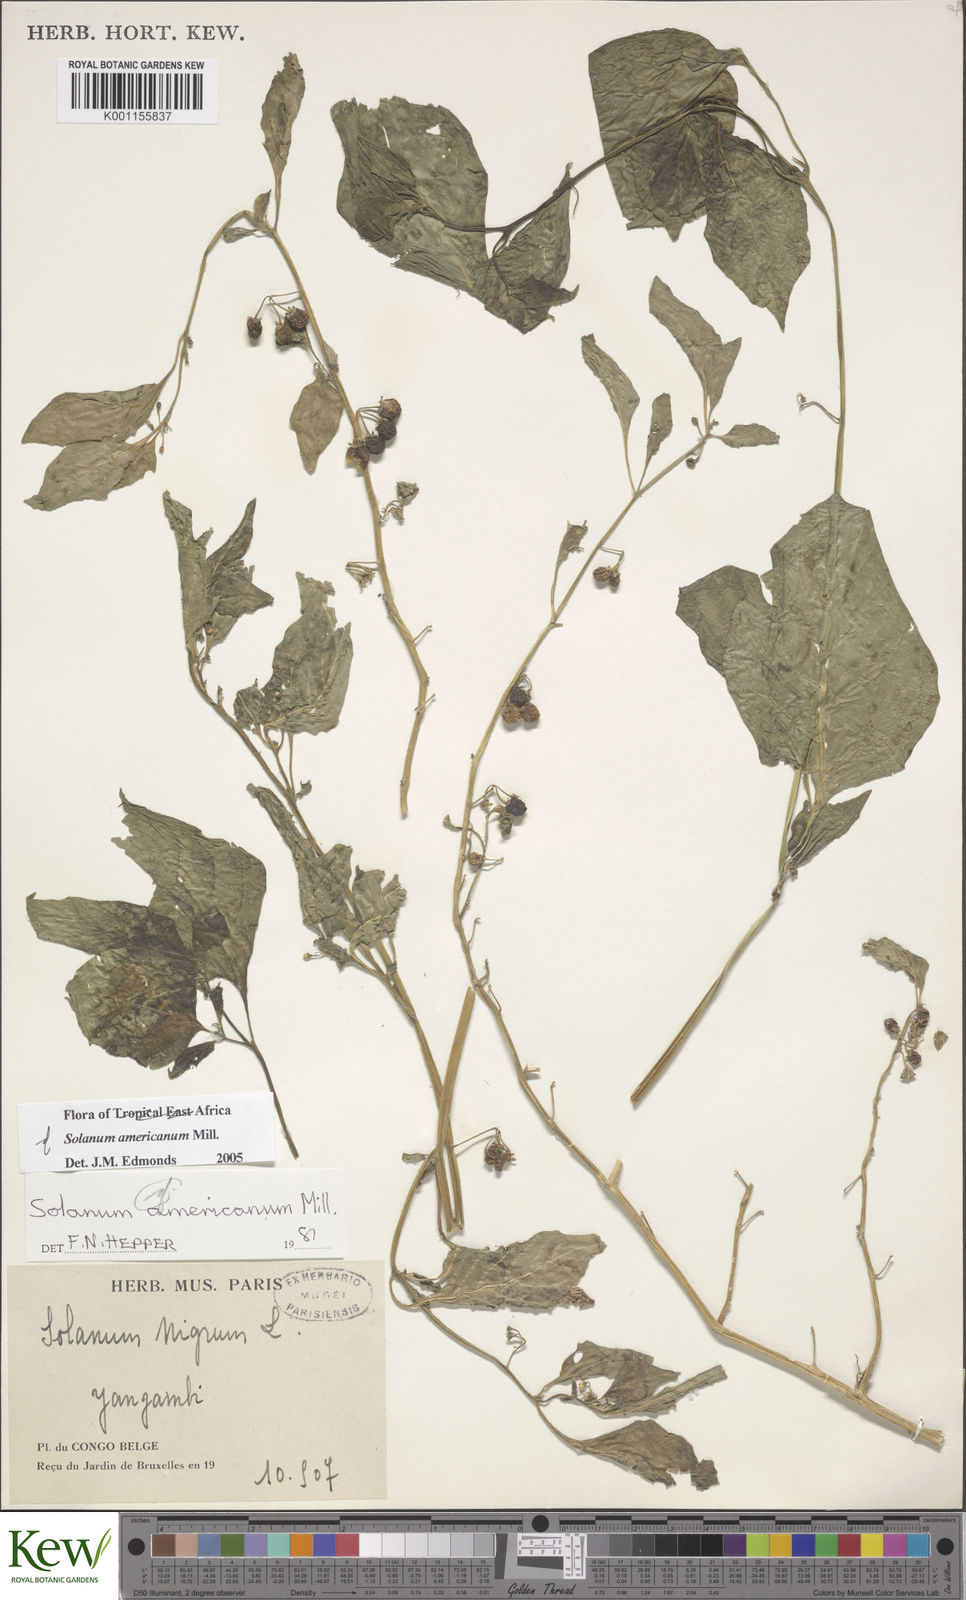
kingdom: Plantae
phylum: Tracheophyta
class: Magnoliopsida
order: Solanales
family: Solanaceae
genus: Solanum
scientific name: Solanum scabrum
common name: Garden-huckleberry
